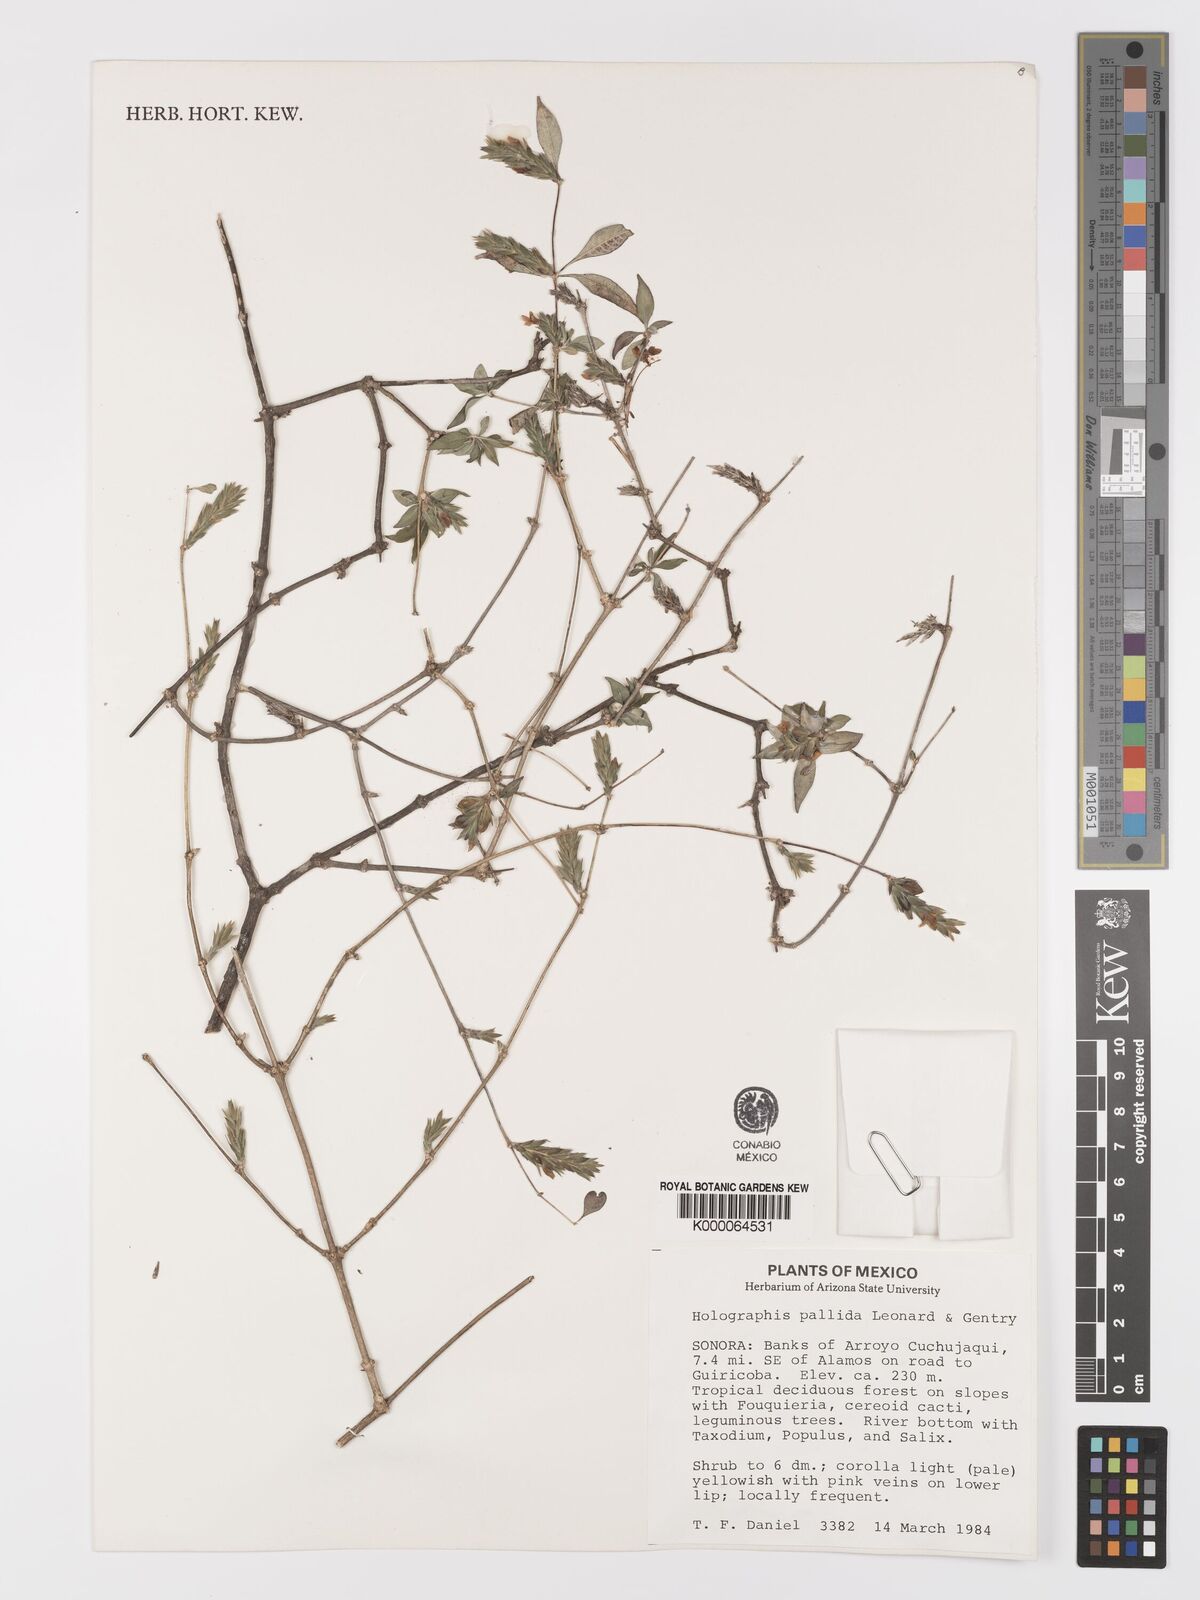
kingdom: Plantae
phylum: Tracheophyta
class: Magnoliopsida
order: Lamiales
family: Acanthaceae
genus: Holographis
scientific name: Holographis pallida
